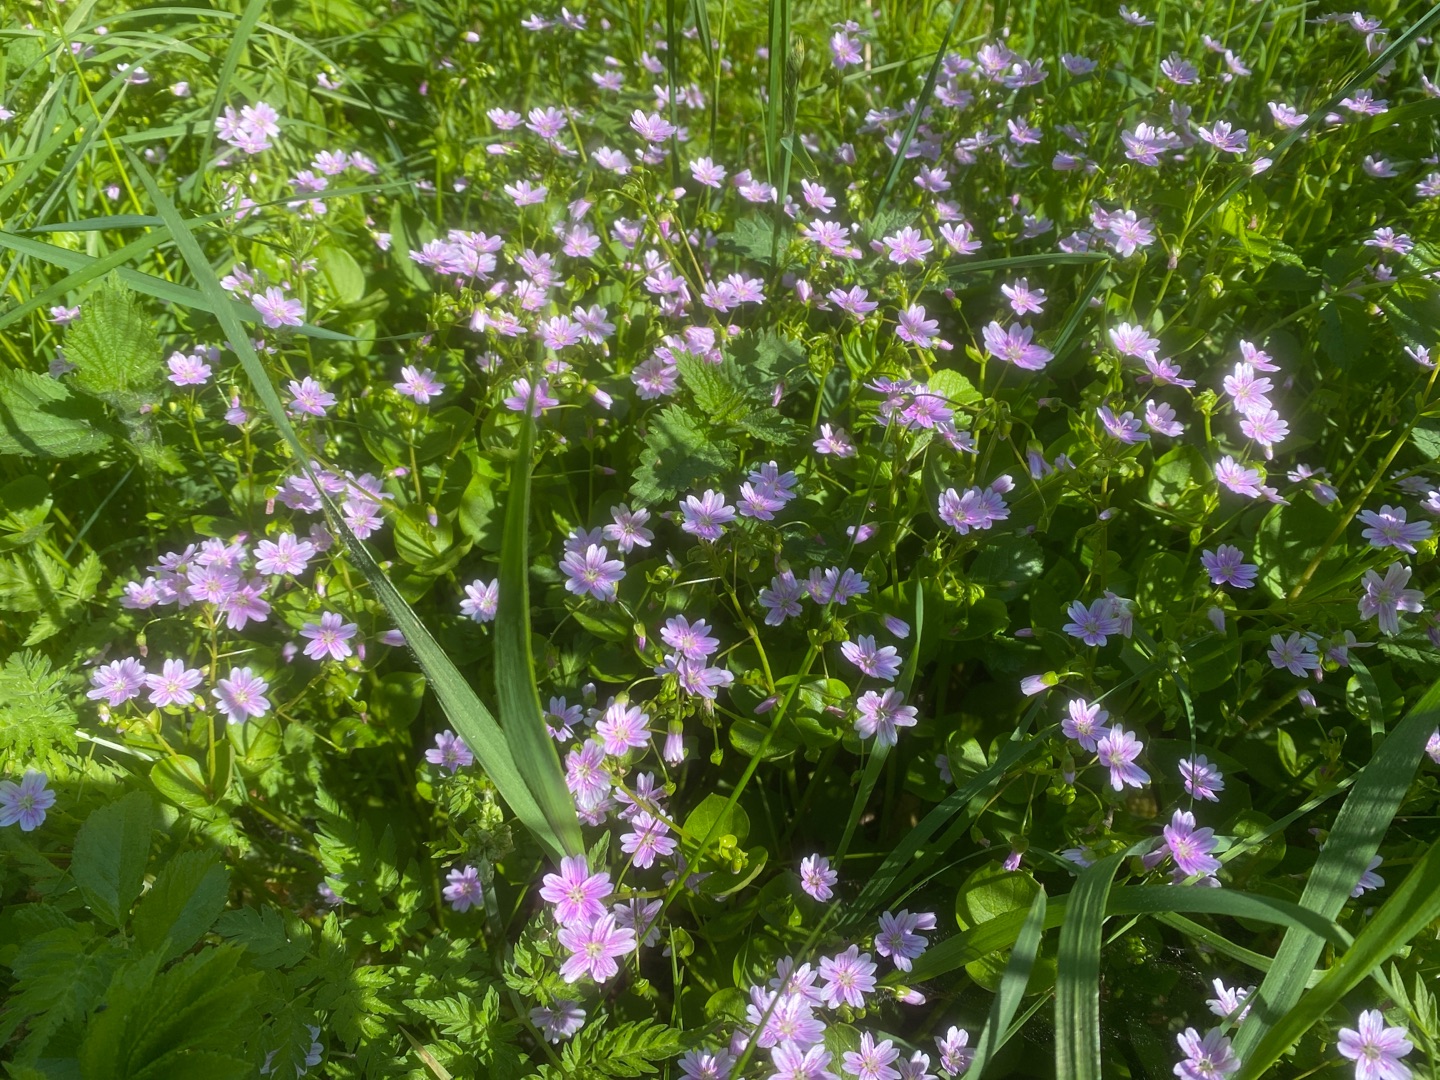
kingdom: Plantae
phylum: Tracheophyta
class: Magnoliopsida
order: Caryophyllales
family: Montiaceae
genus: Claytonia
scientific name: Claytonia sibirica
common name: Sibirisk vinterportulak
